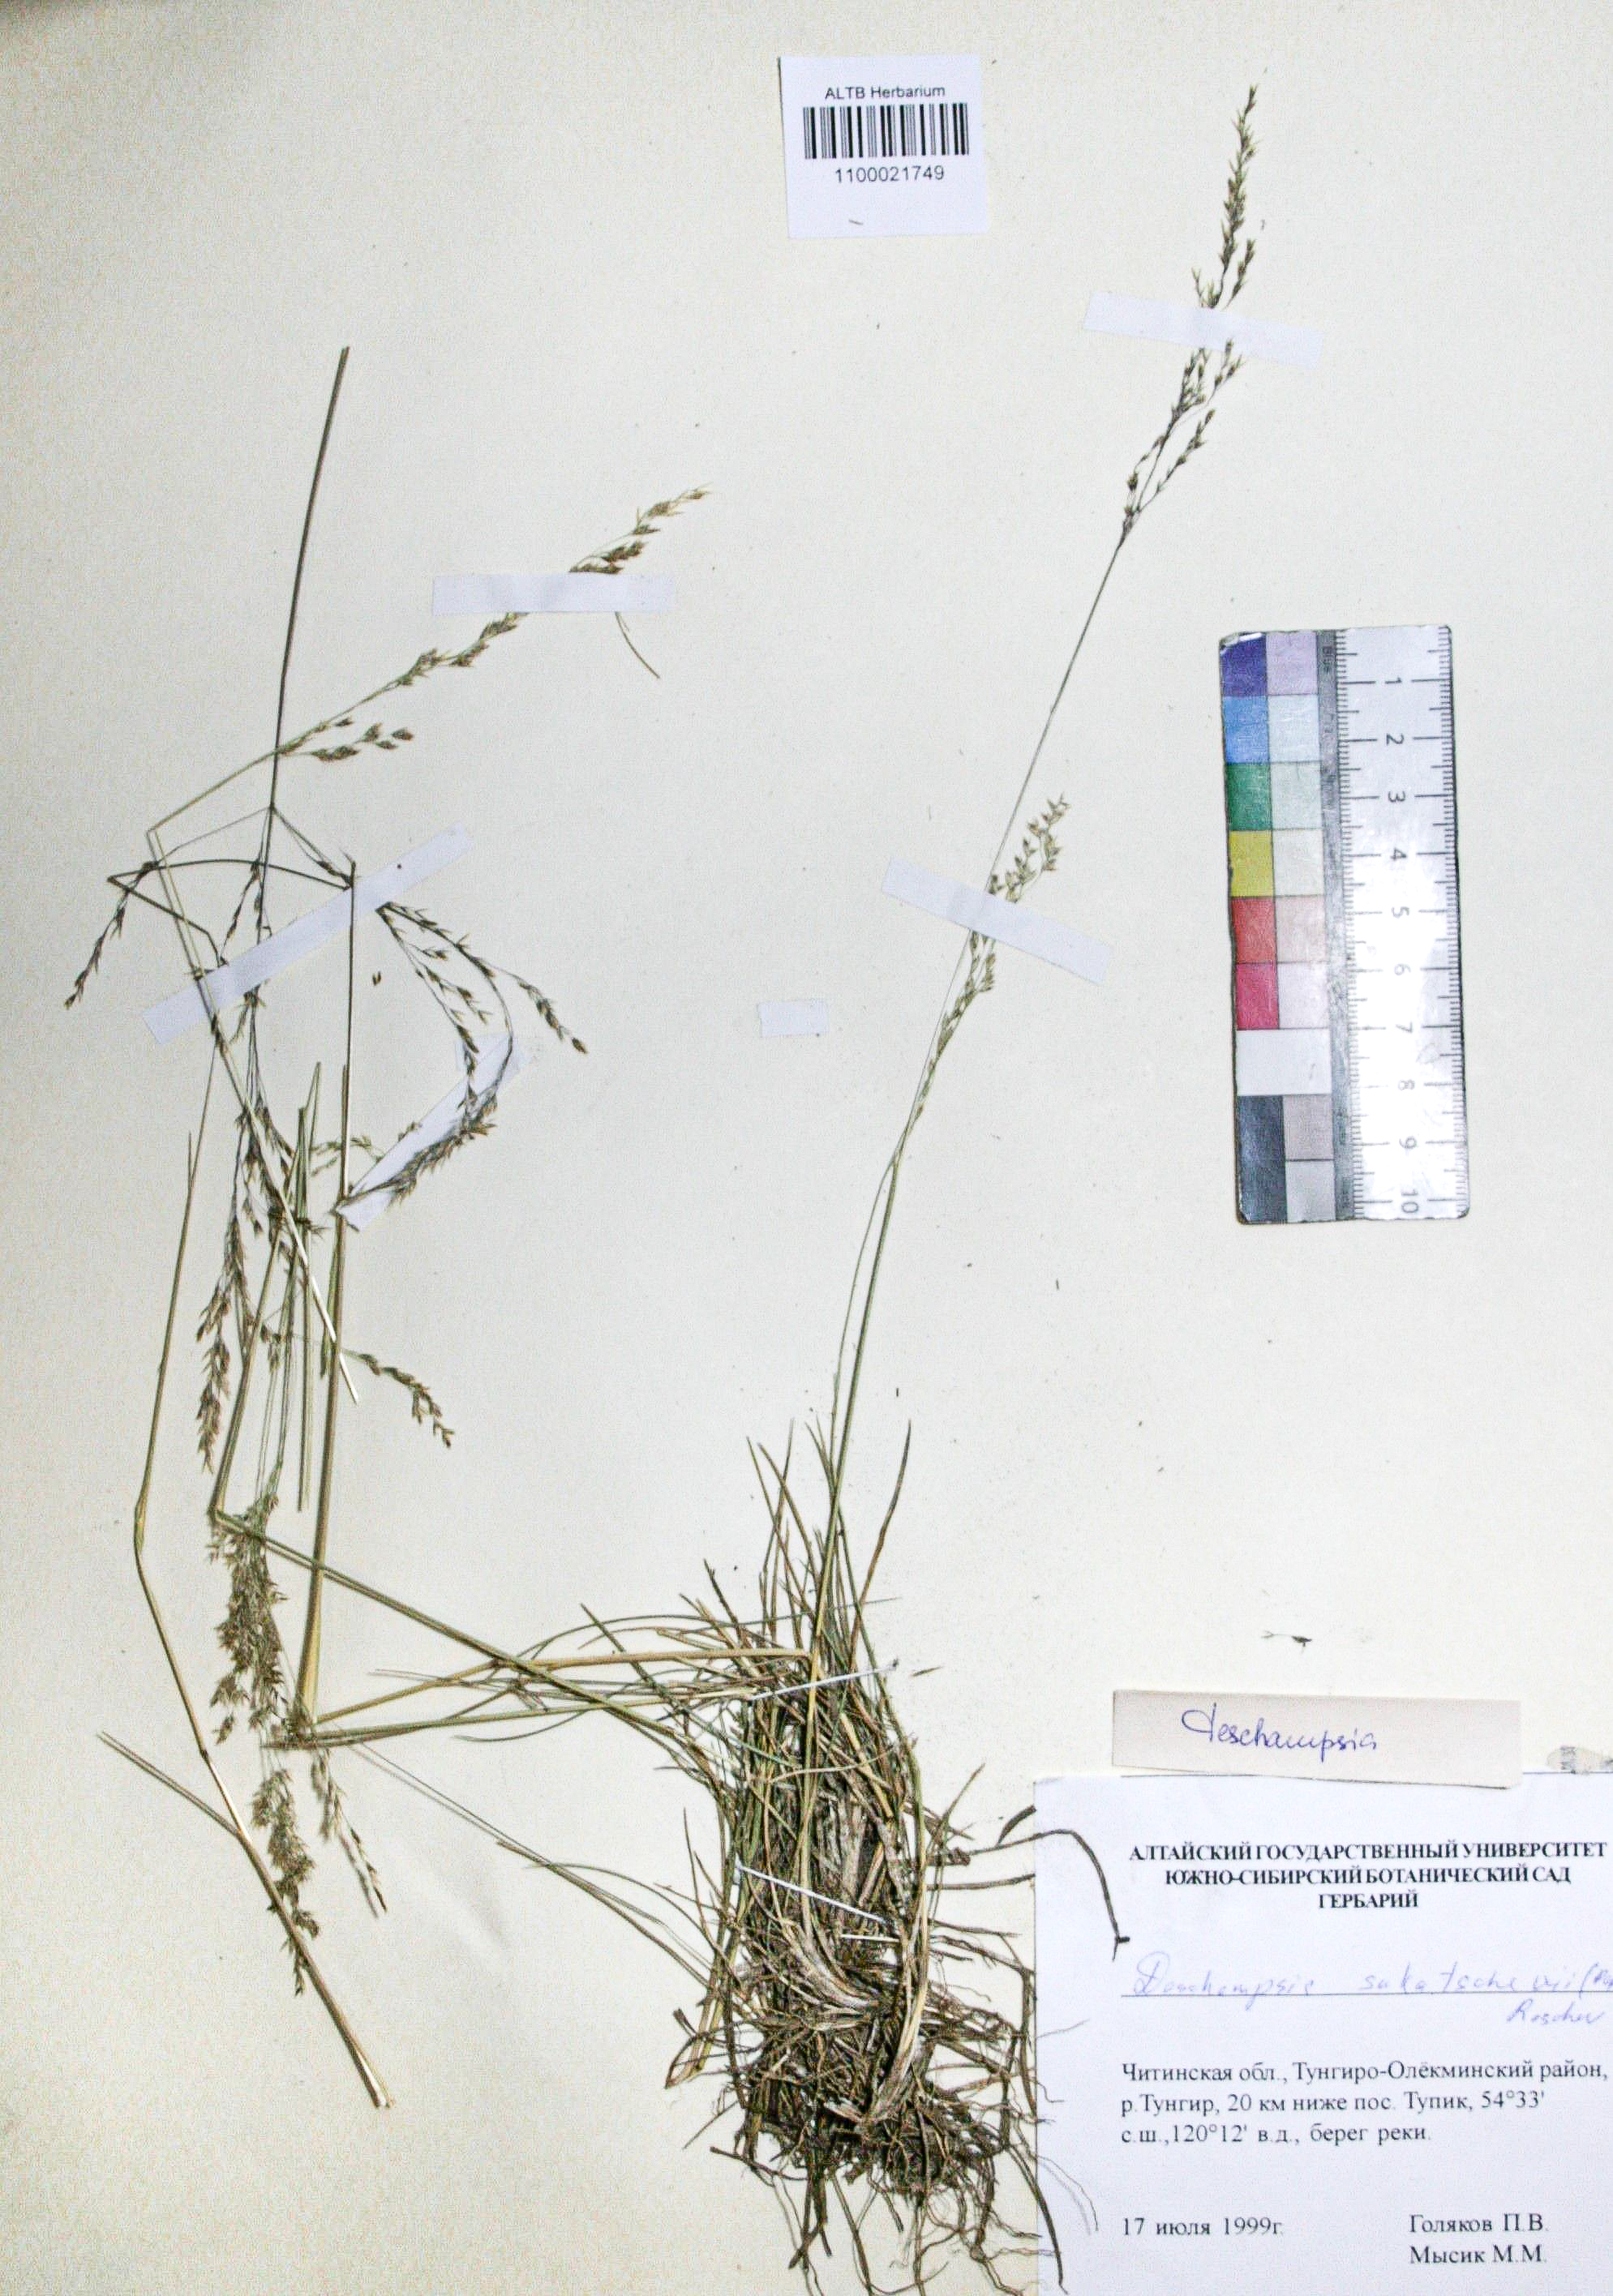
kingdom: Plantae
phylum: Tracheophyta
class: Liliopsida
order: Poales
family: Poaceae
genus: Deschampsia
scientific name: Deschampsia cespitosa
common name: Tufted hair-grass
